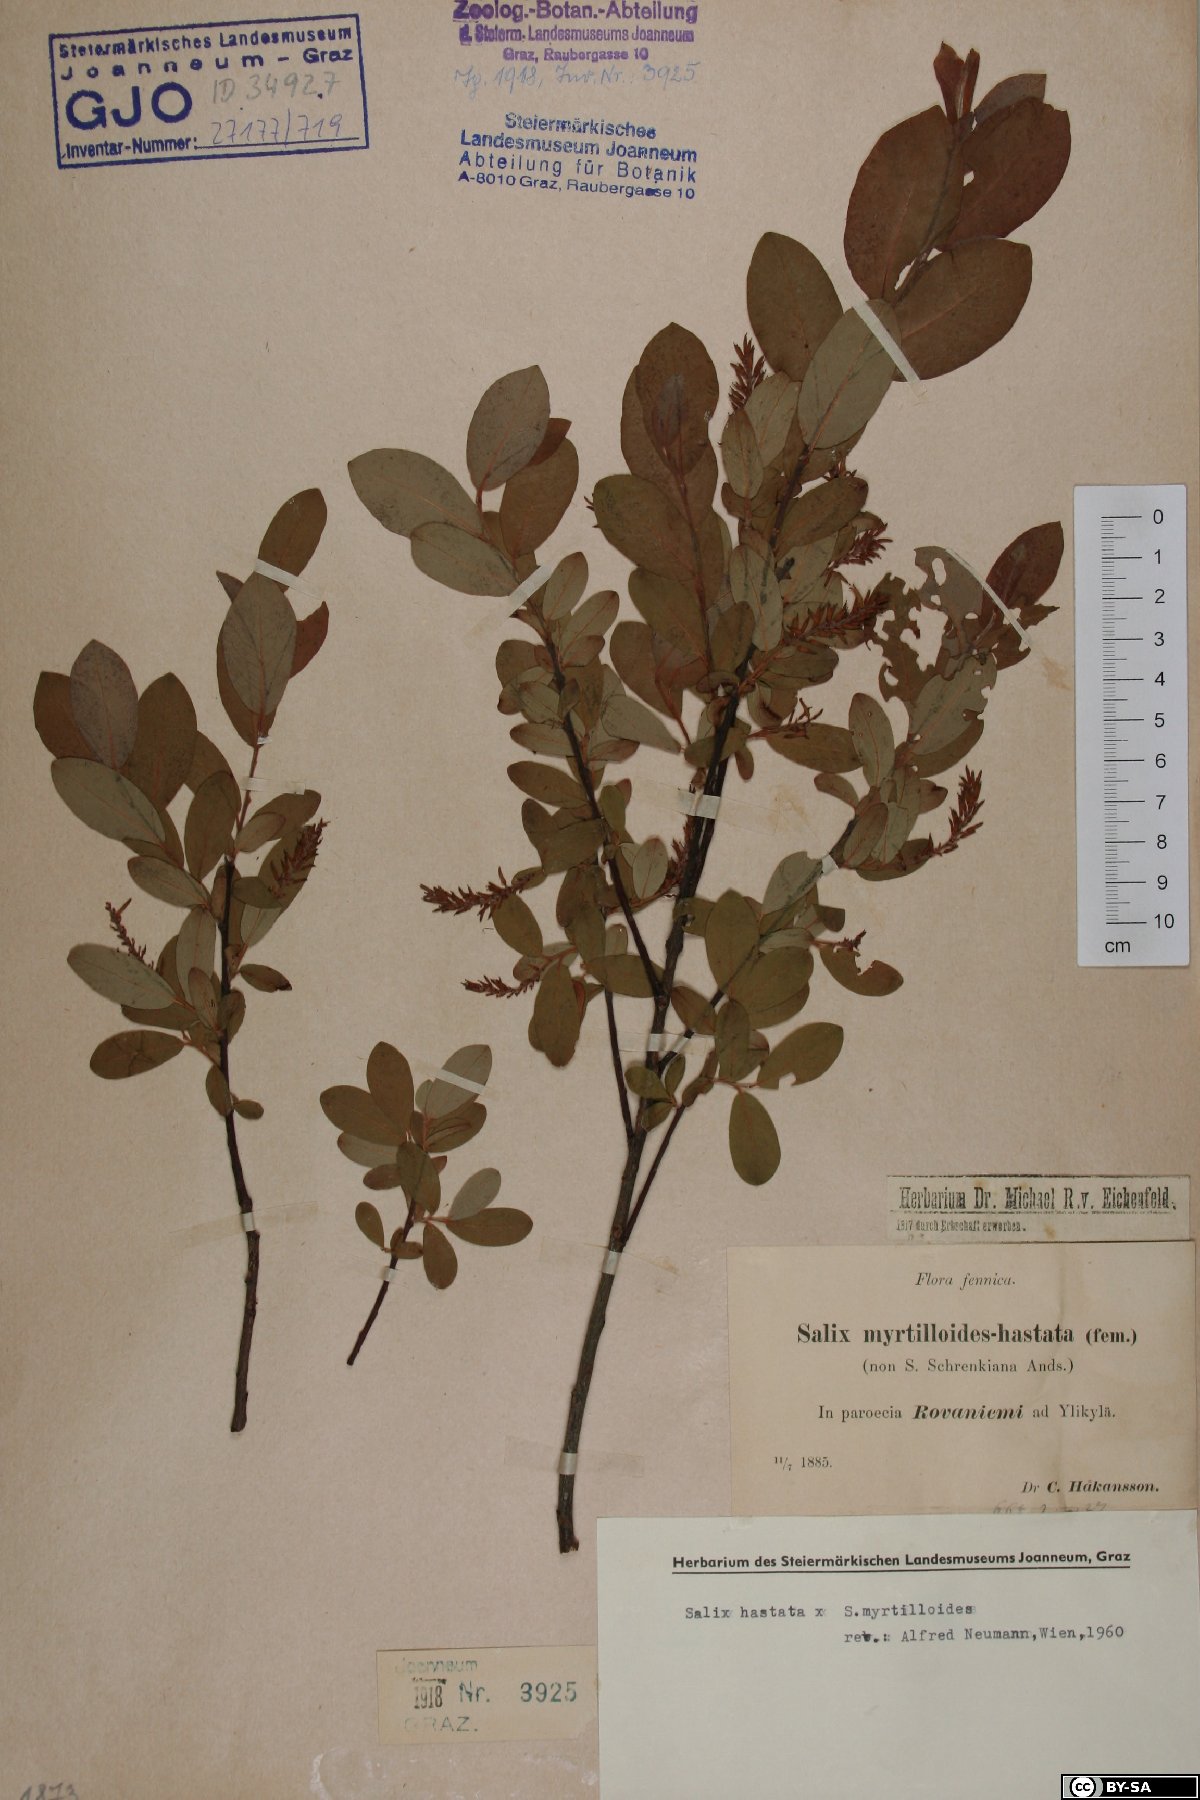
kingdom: Plantae
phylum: Tracheophyta
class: Magnoliopsida
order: Malpighiales
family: Salicaceae
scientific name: Salicaceae
